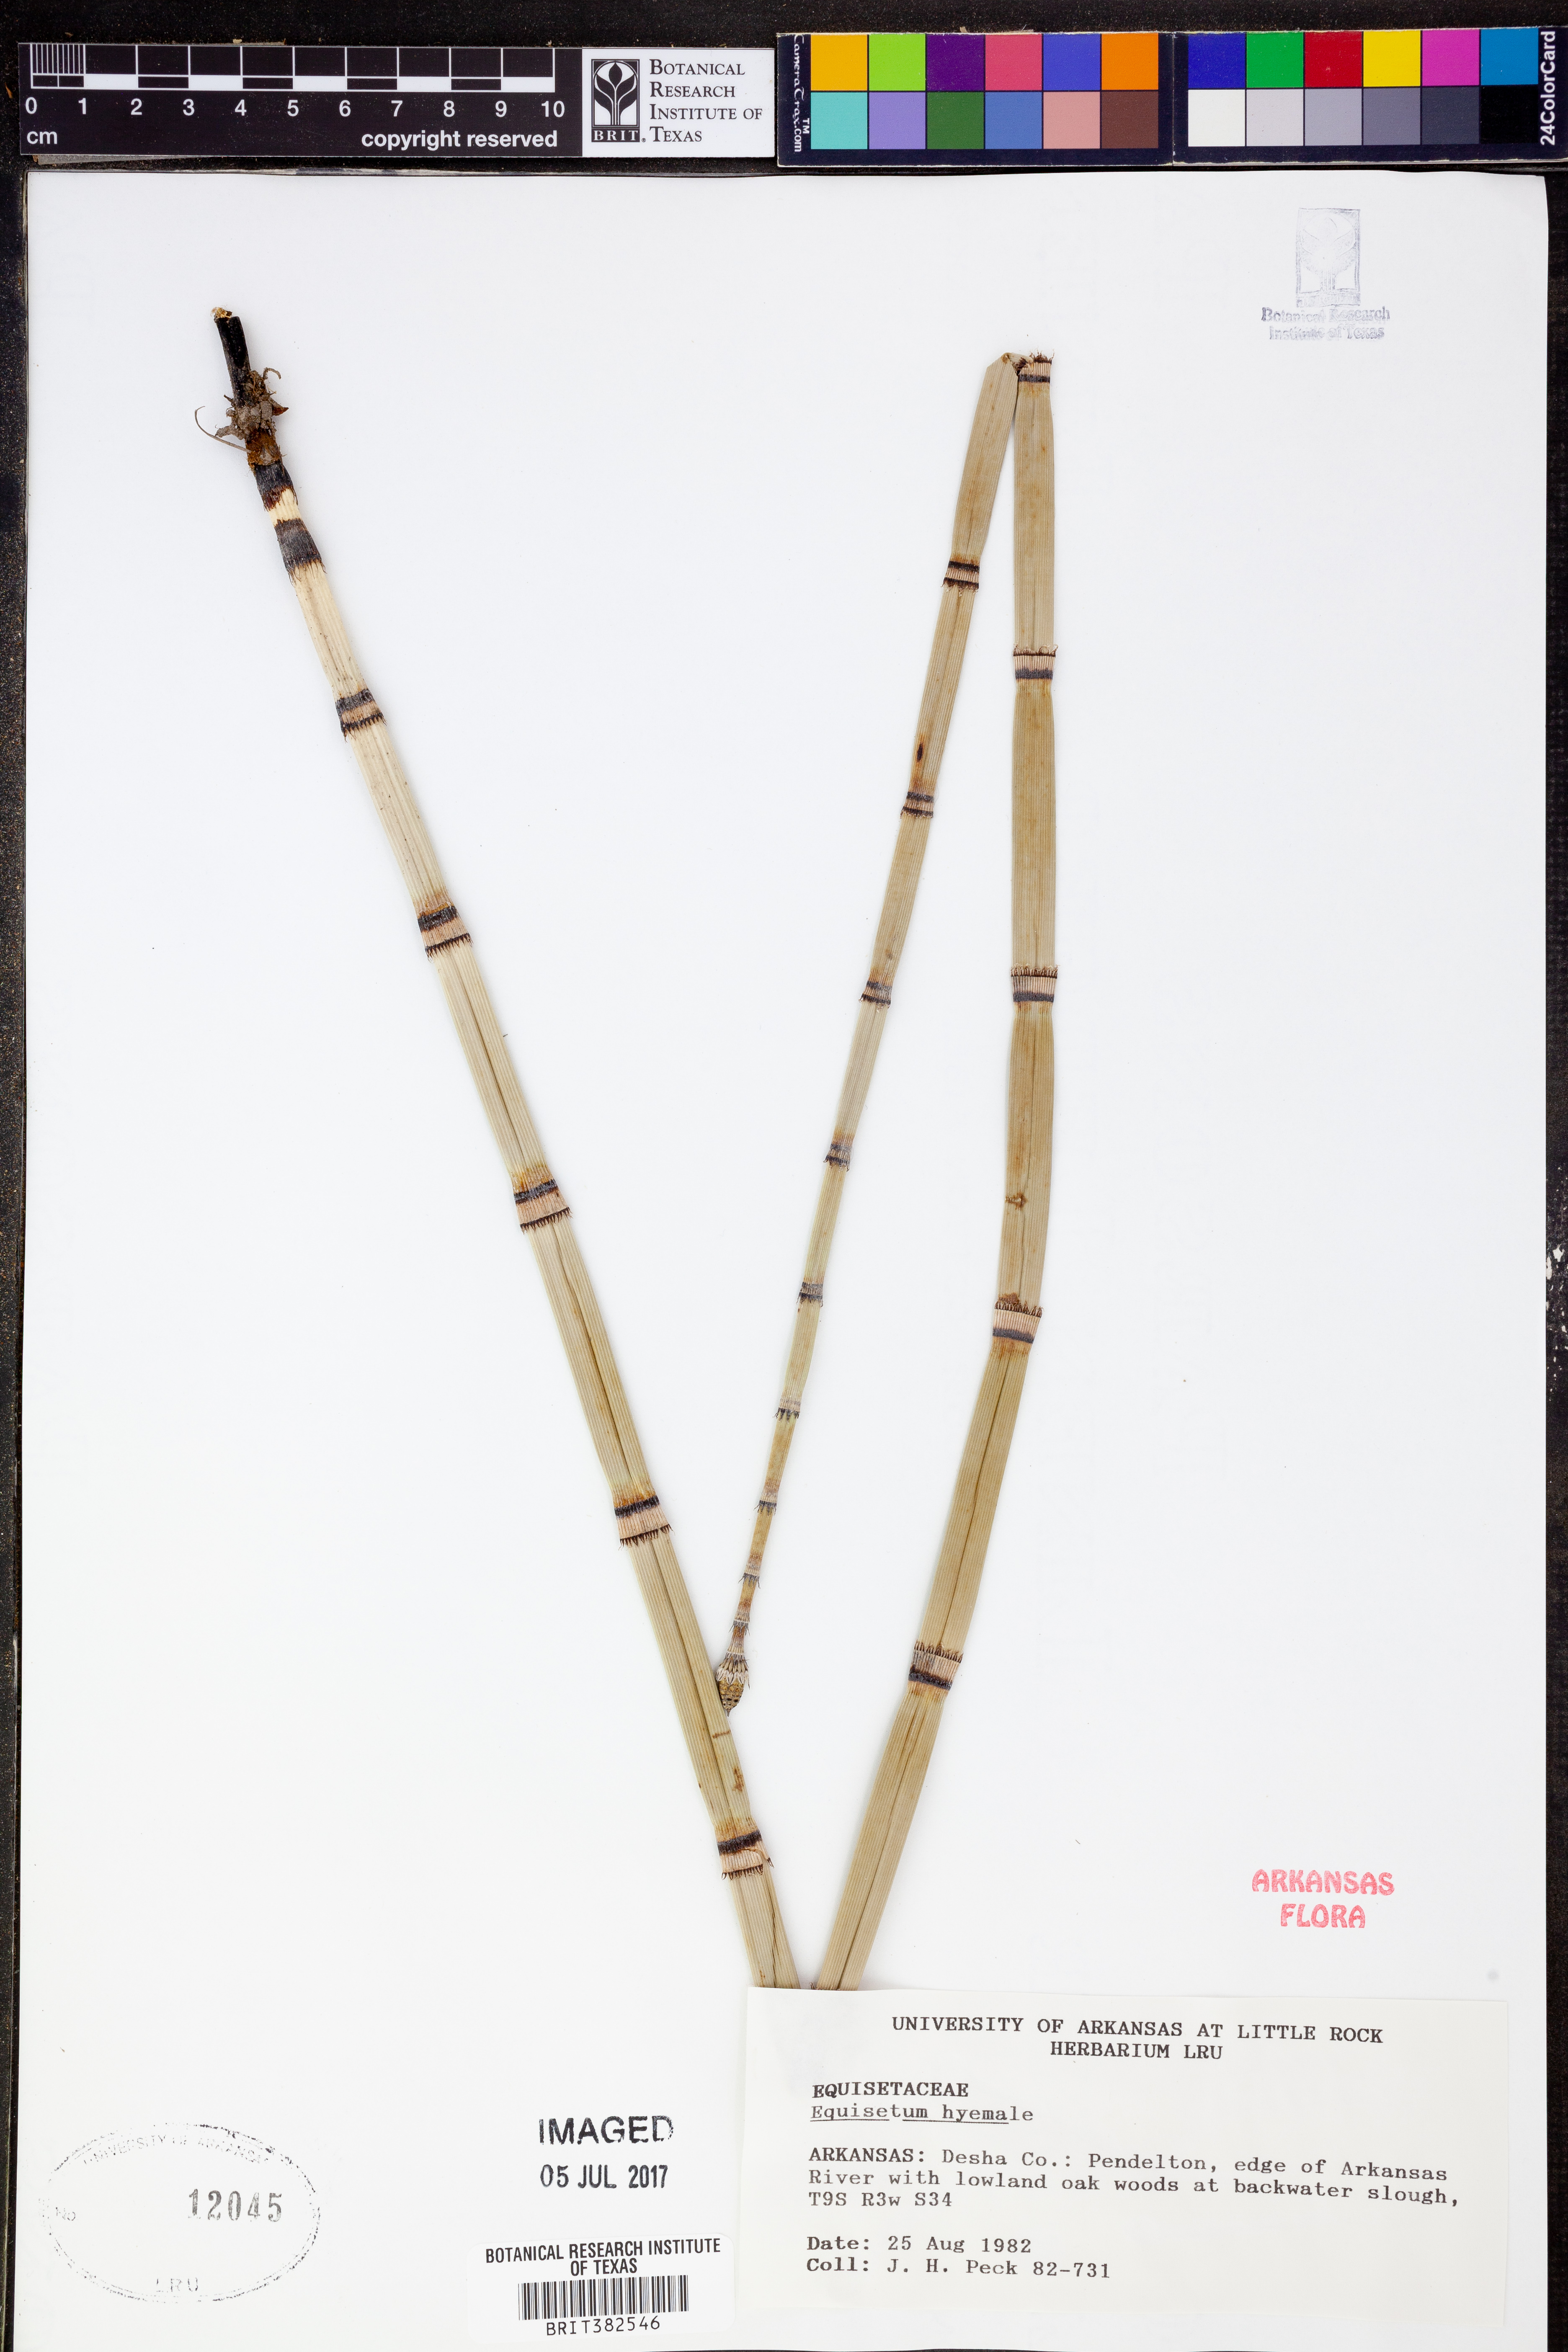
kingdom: Plantae
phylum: Tracheophyta
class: Polypodiopsida
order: Equisetales
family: Equisetaceae
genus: Equisetum
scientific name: Equisetum hyemale
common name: Rough horsetail
